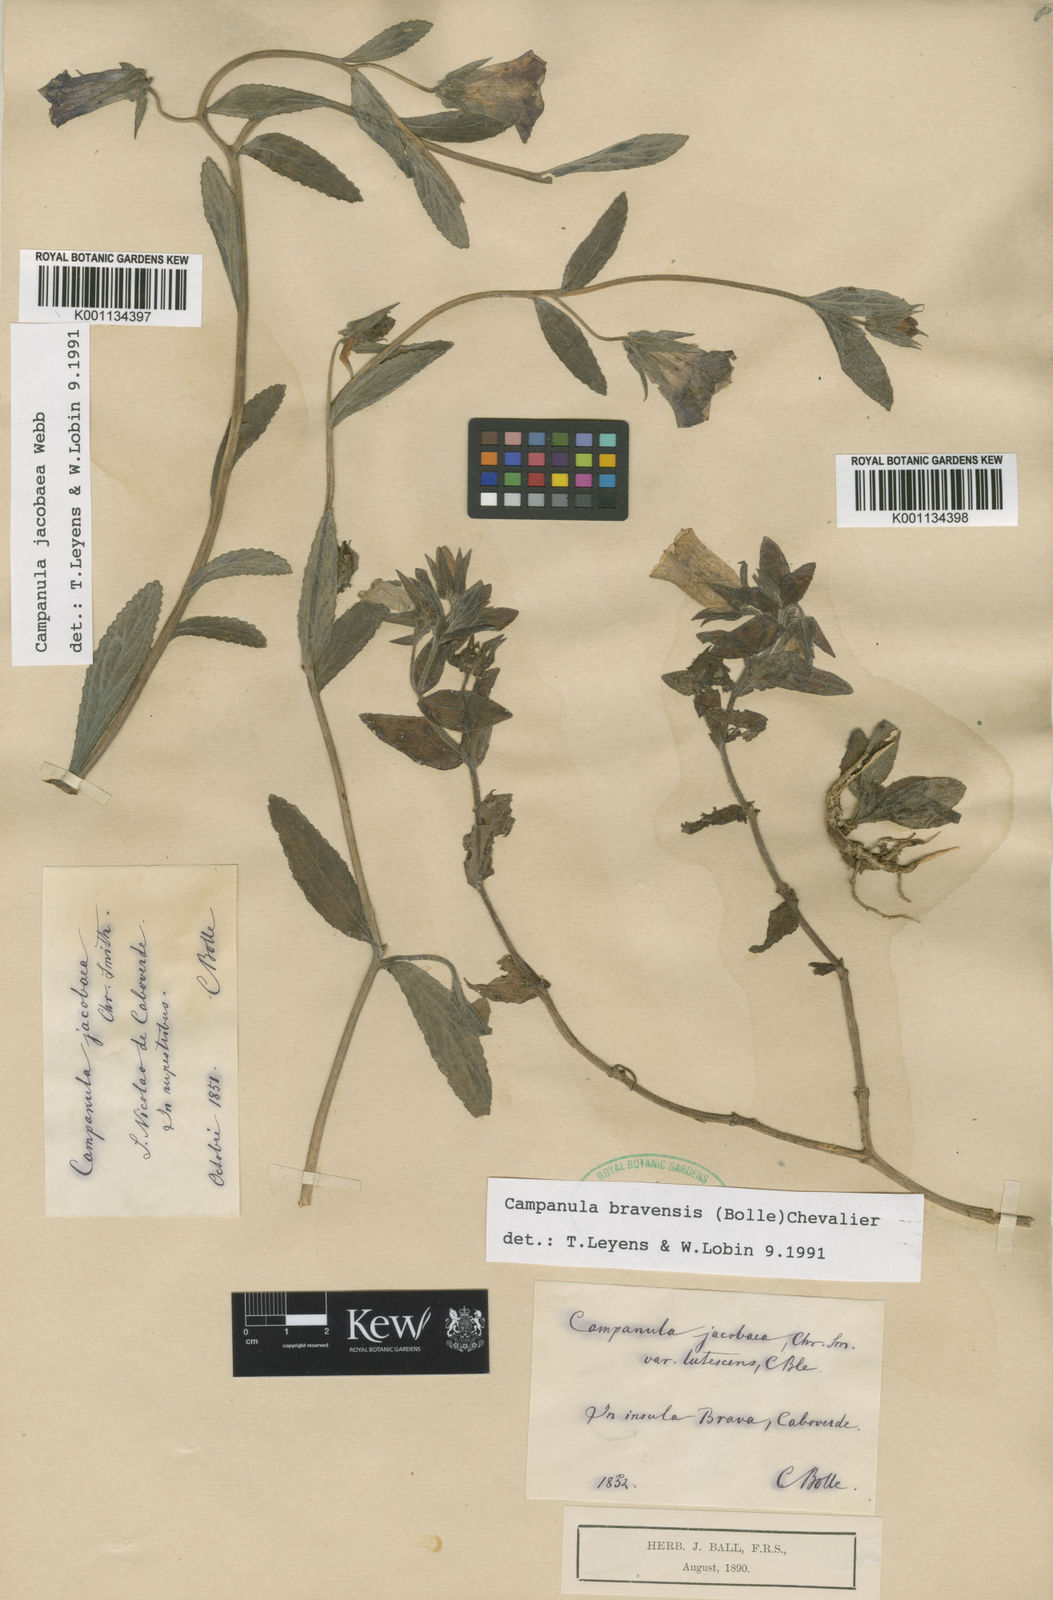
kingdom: Plantae
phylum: Tracheophyta
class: Magnoliopsida
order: Asterales
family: Campanulaceae
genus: Campanula
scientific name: Campanula
